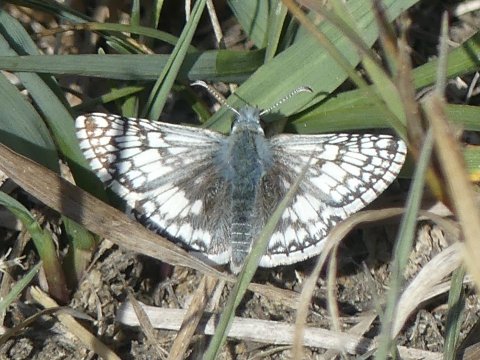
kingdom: Animalia
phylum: Arthropoda
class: Insecta
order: Lepidoptera
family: Hesperiidae
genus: Pyrgus
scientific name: Pyrgus communis
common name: Common Checkered-Skipper
